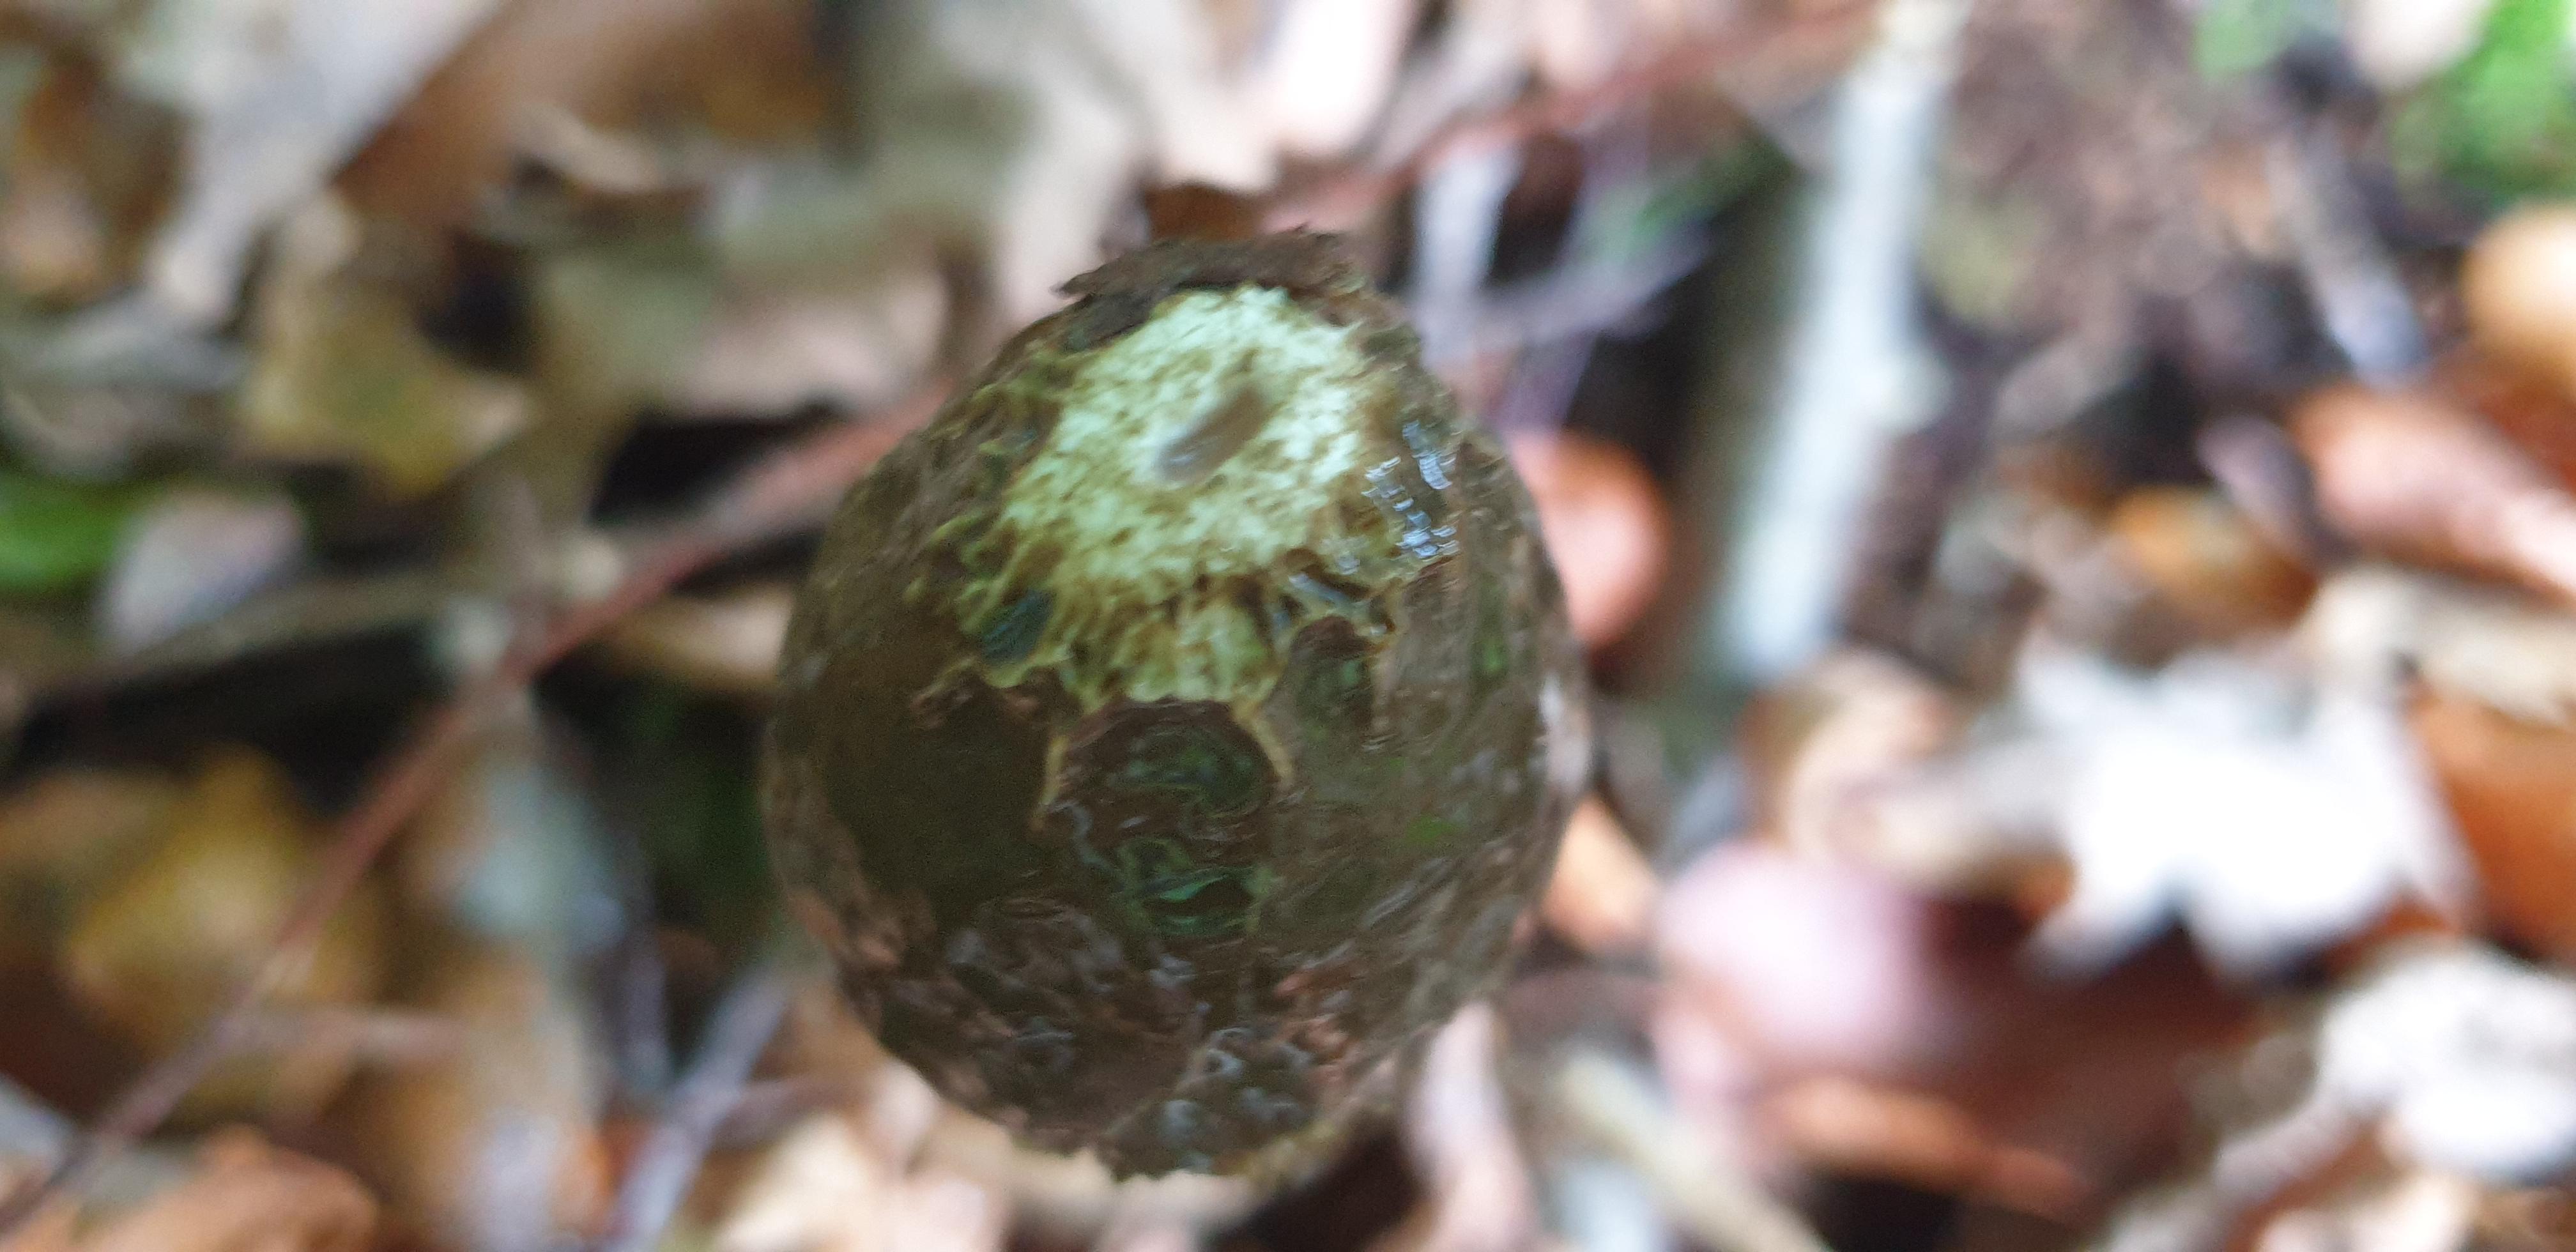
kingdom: Fungi
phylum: Basidiomycota
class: Agaricomycetes
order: Phallales
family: Phallaceae
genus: Phallus
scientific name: Phallus impudicus
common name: almindelig stinksvamp
